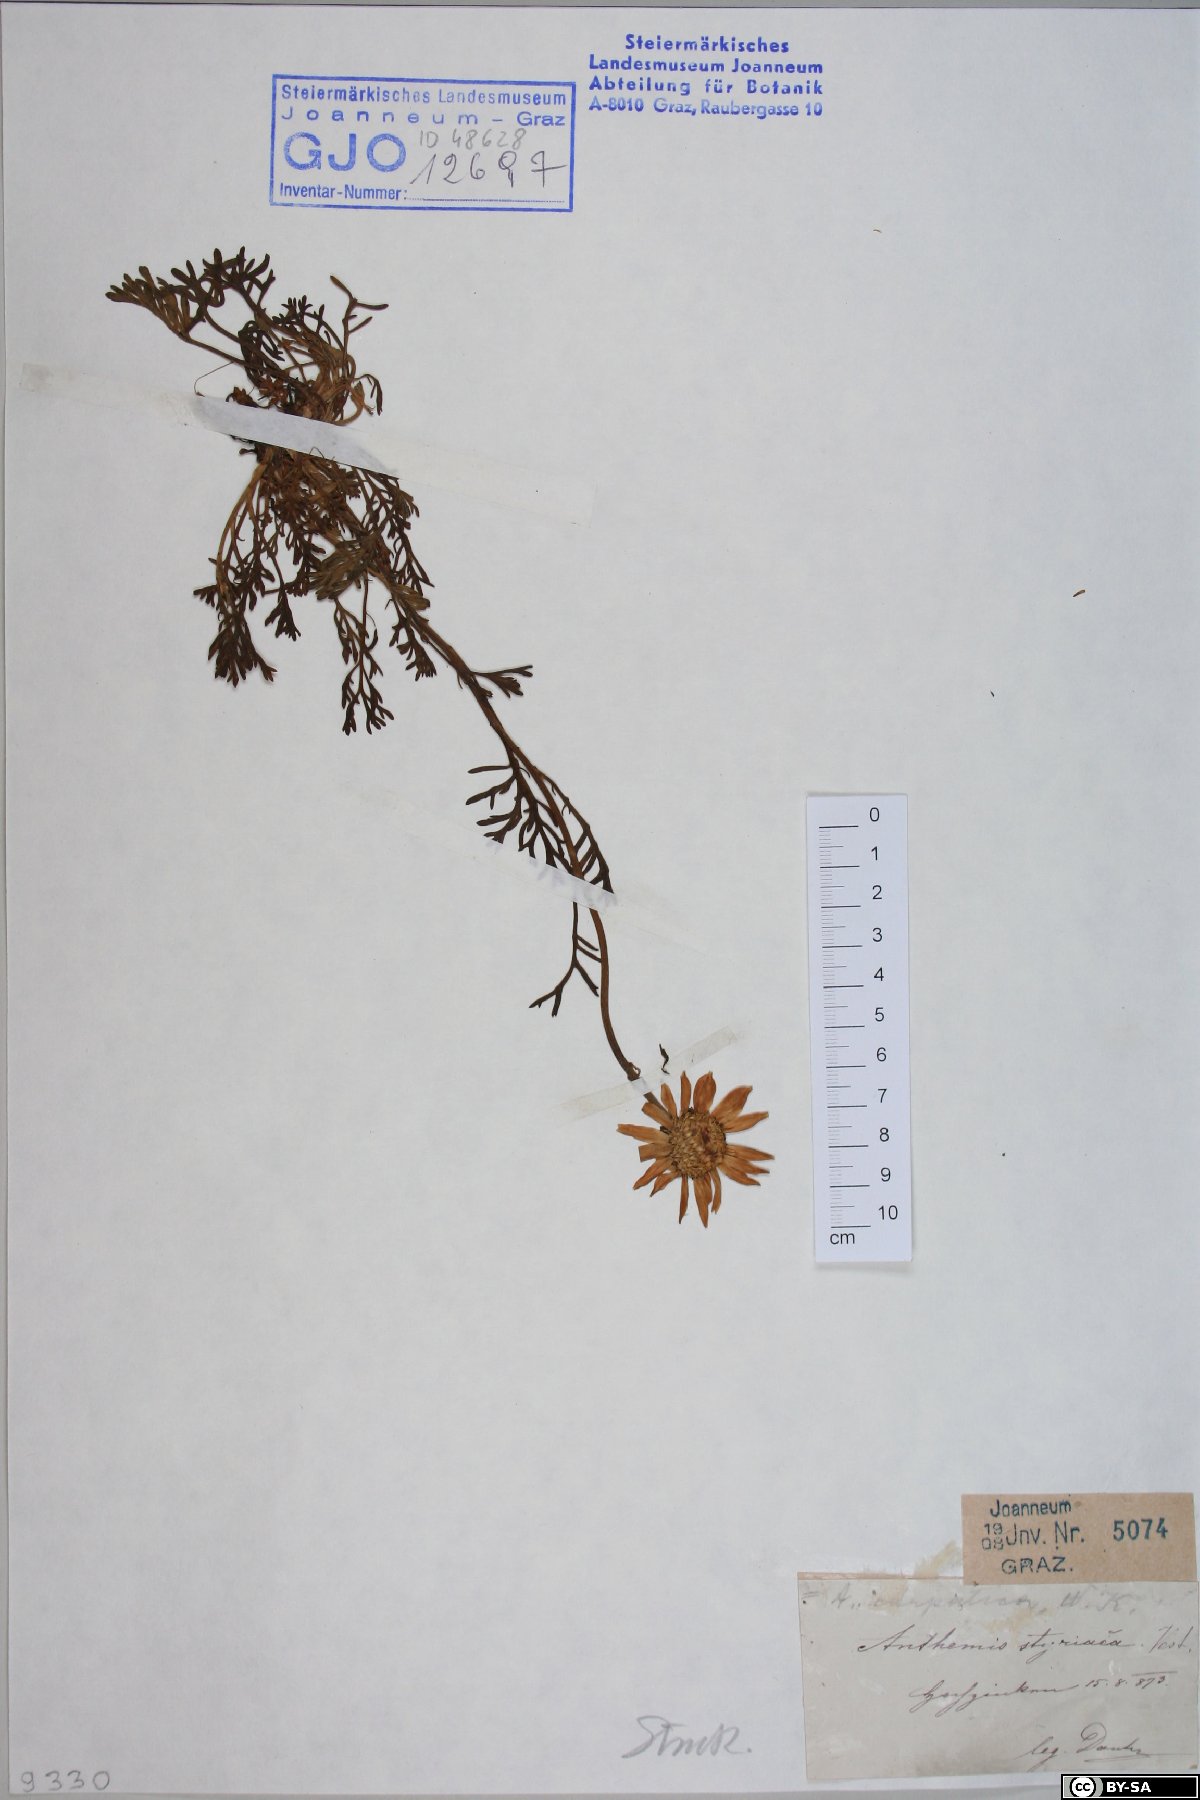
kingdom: Plantae
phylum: Tracheophyta
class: Magnoliopsida
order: Asterales
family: Asteraceae
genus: Anthemis
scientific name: Anthemis cretica
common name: Mountain dog-daisy
